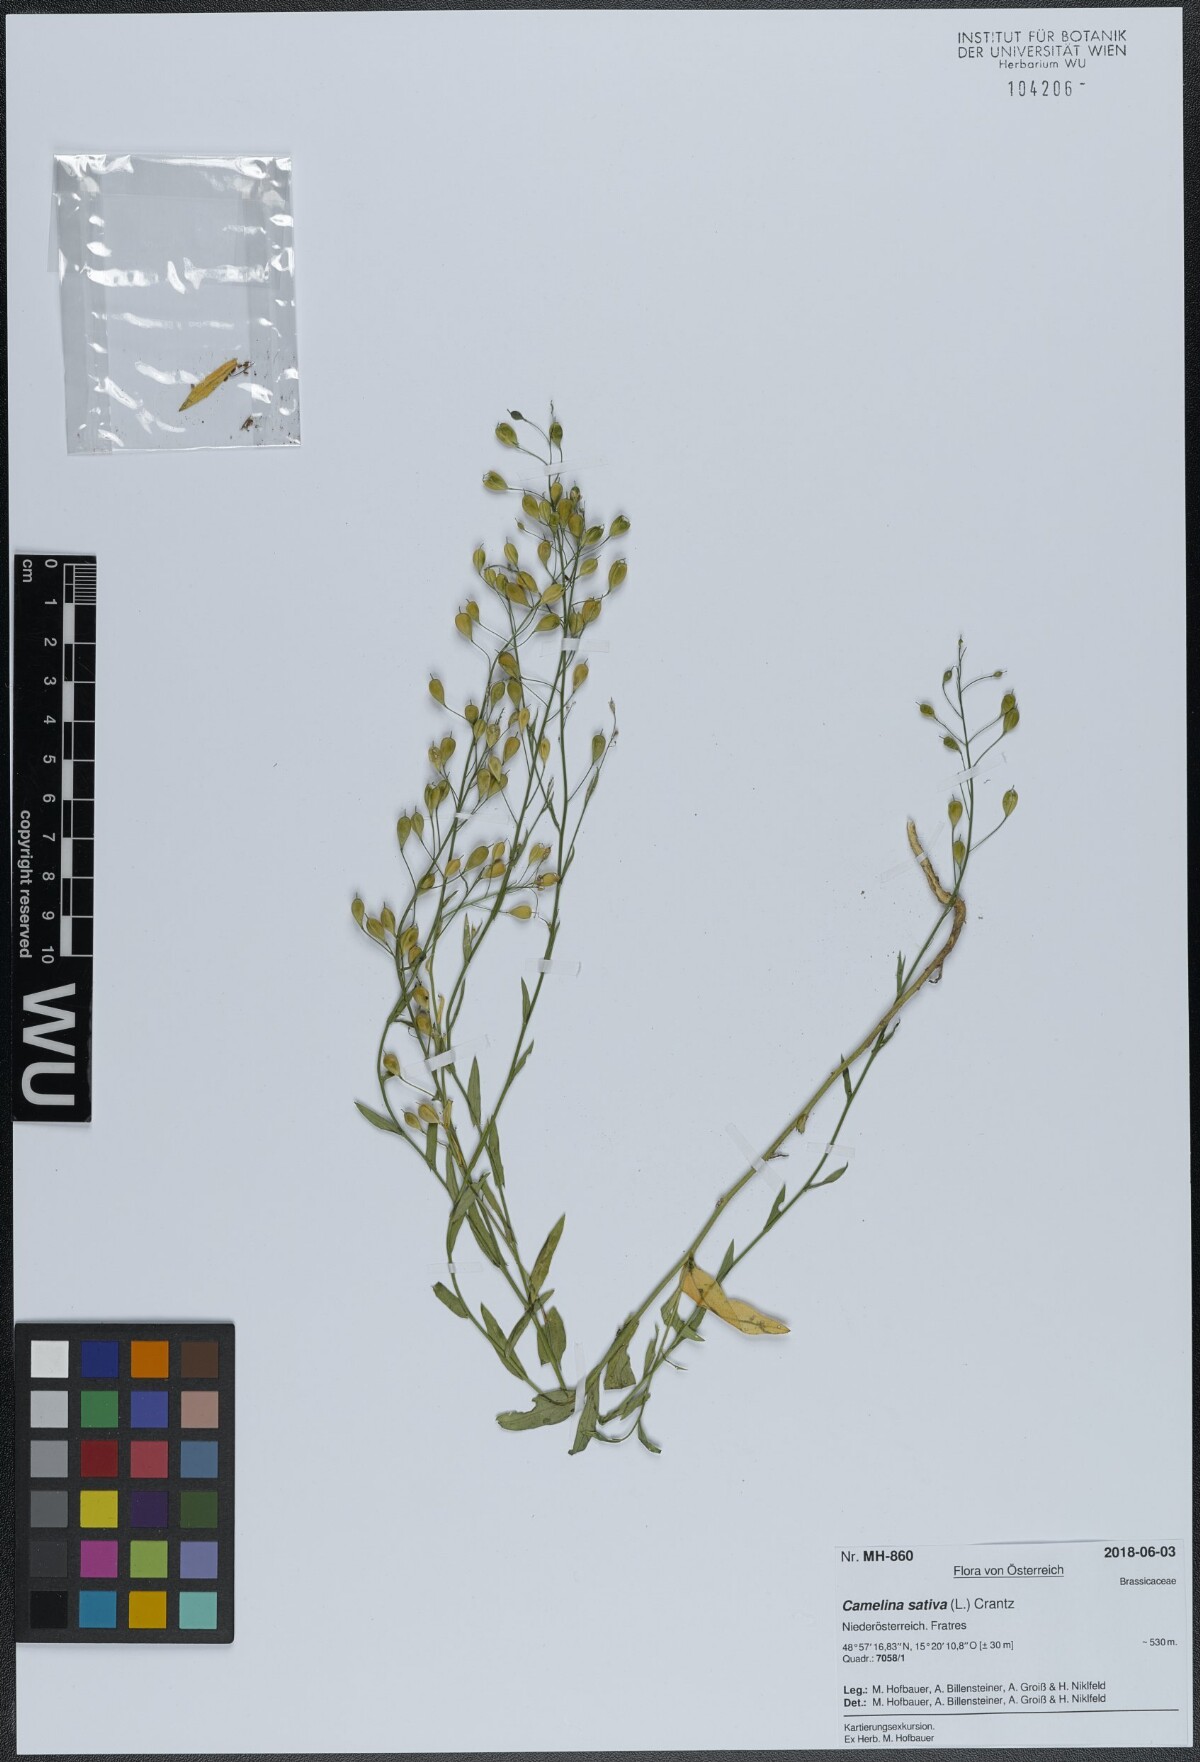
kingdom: Plantae
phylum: Tracheophyta
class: Magnoliopsida
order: Brassicales
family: Brassicaceae
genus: Camelina
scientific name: Camelina sativa
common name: Gold-of-pleasure
